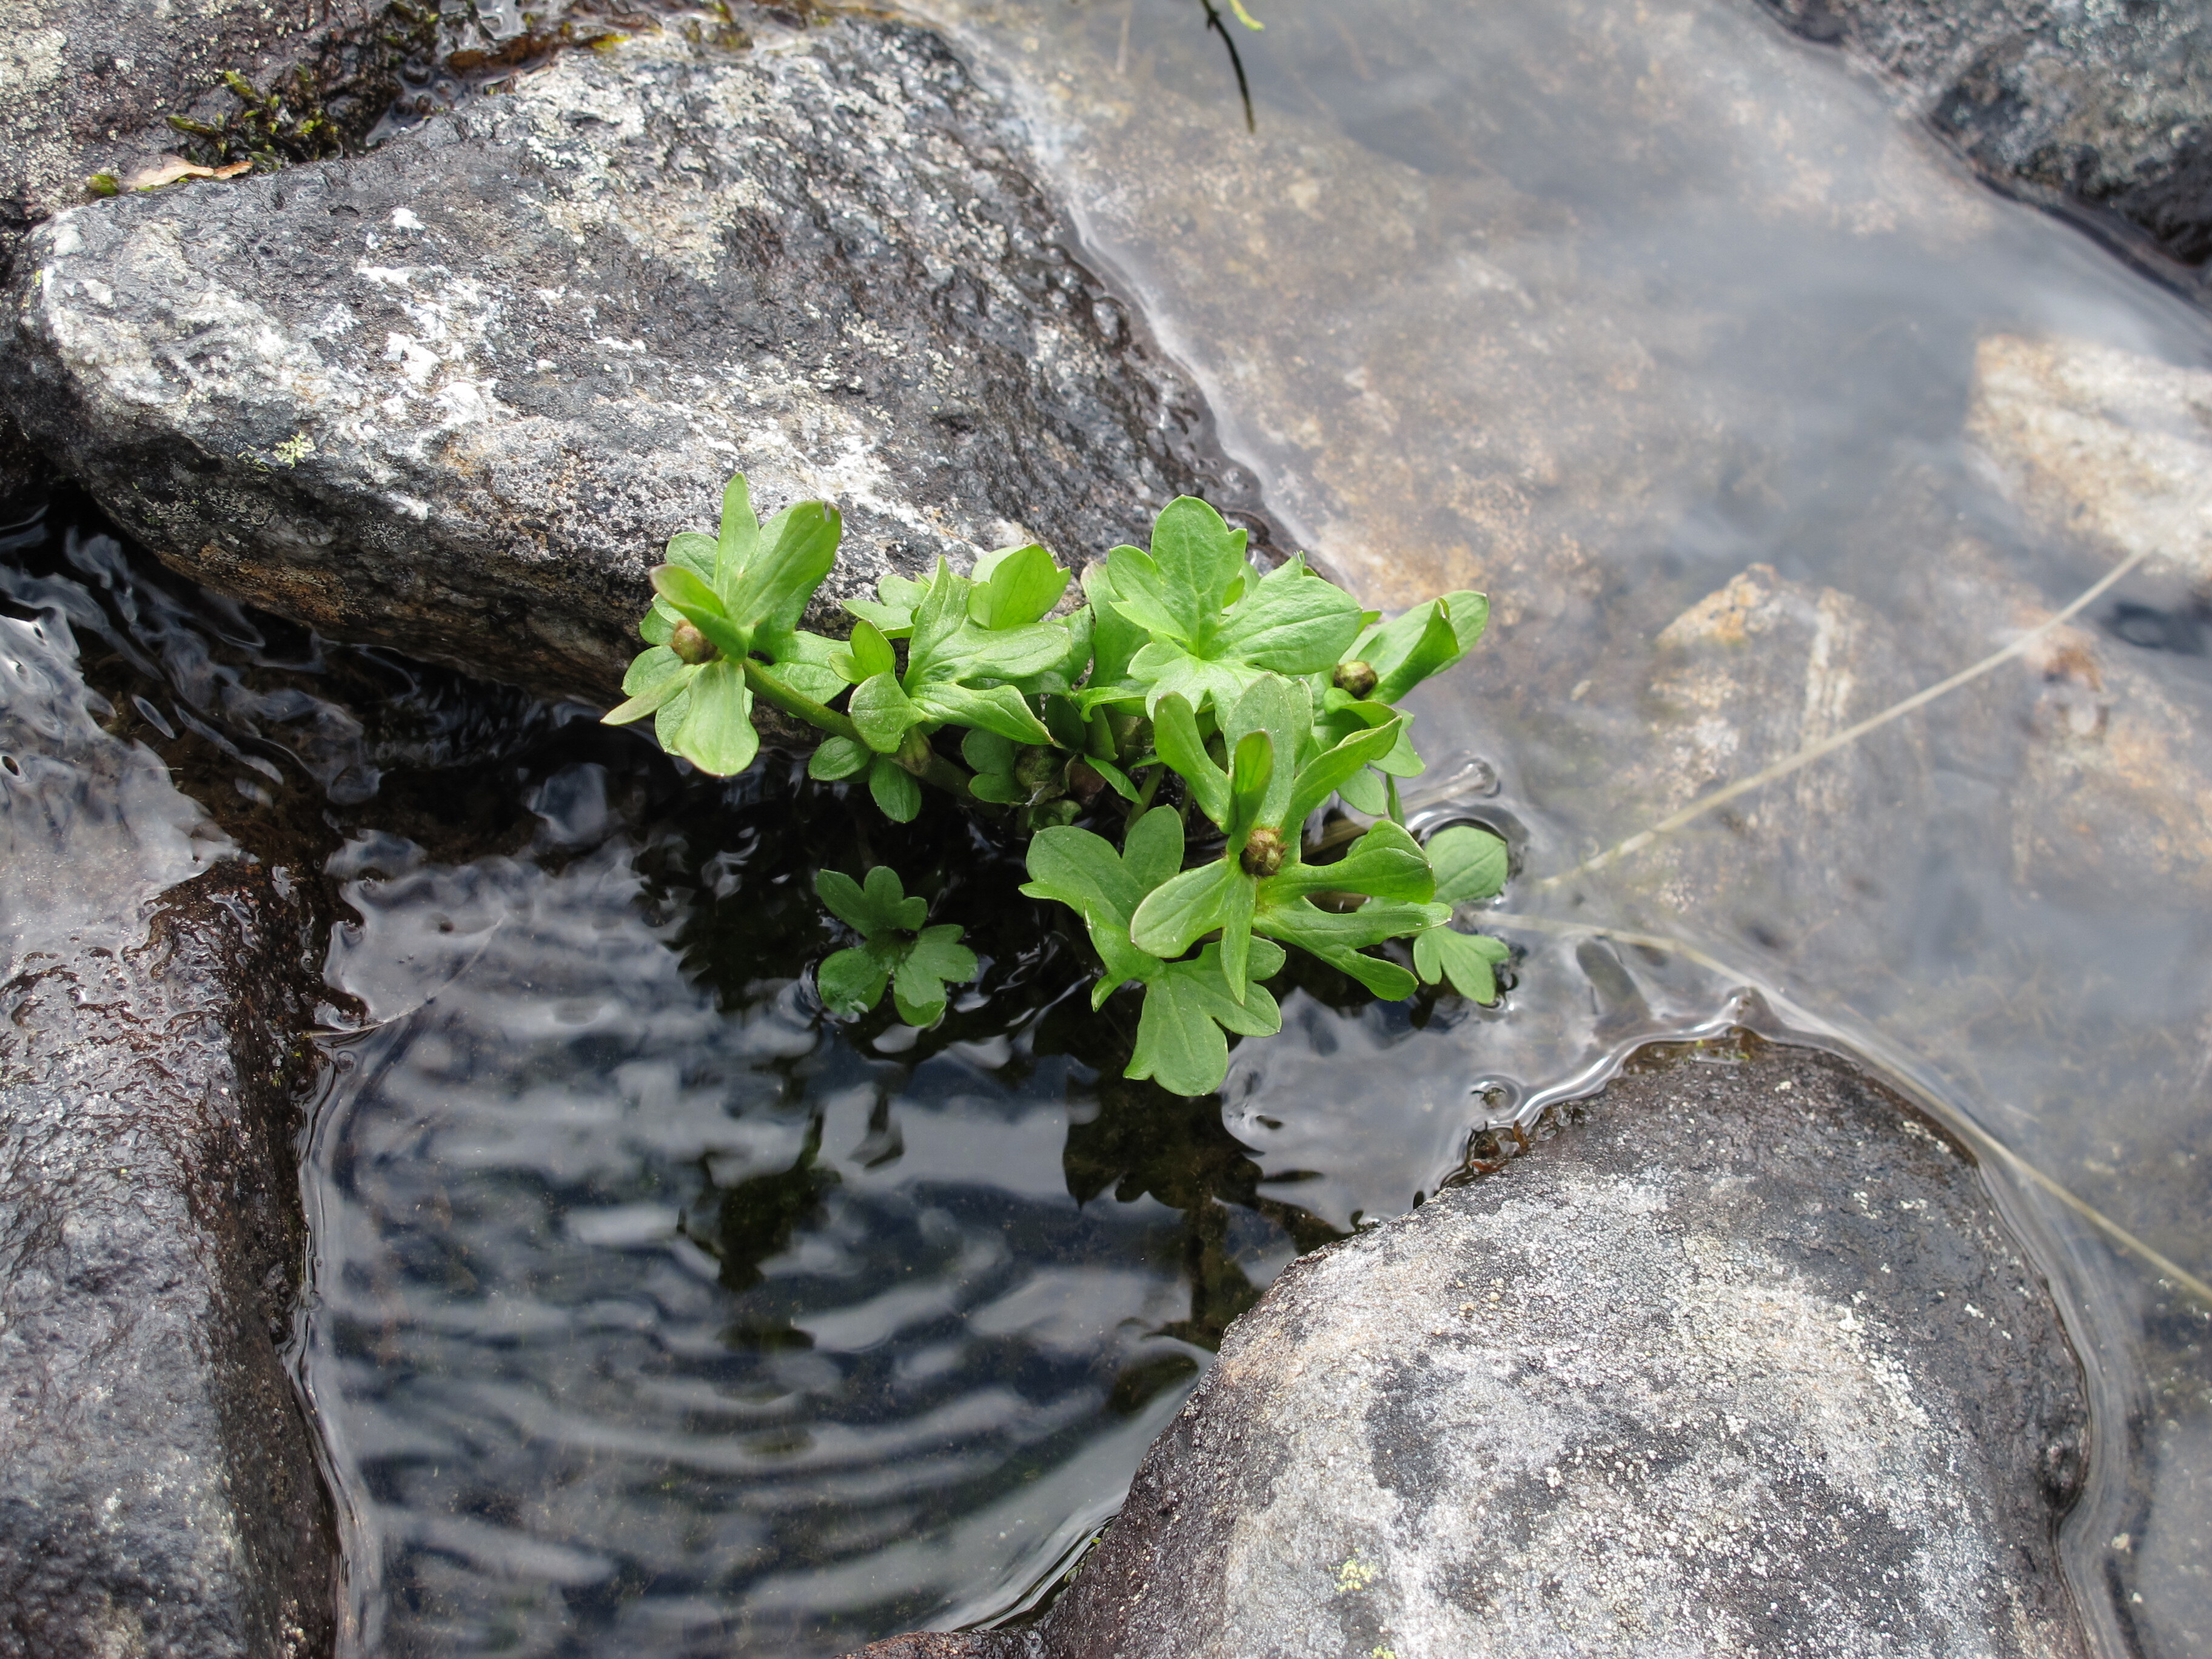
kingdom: Plantae
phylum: Tracheophyta
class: Magnoliopsida
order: Ranunculales
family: Ranunculaceae
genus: Ranunculus
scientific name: Ranunculus nivalis
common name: Snow buttercup
